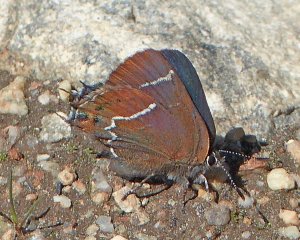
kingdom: Animalia
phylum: Arthropoda
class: Insecta
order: Lepidoptera
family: Lycaenidae
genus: Mitoura
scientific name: Mitoura spinetorum
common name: Thicket Hairstreak
